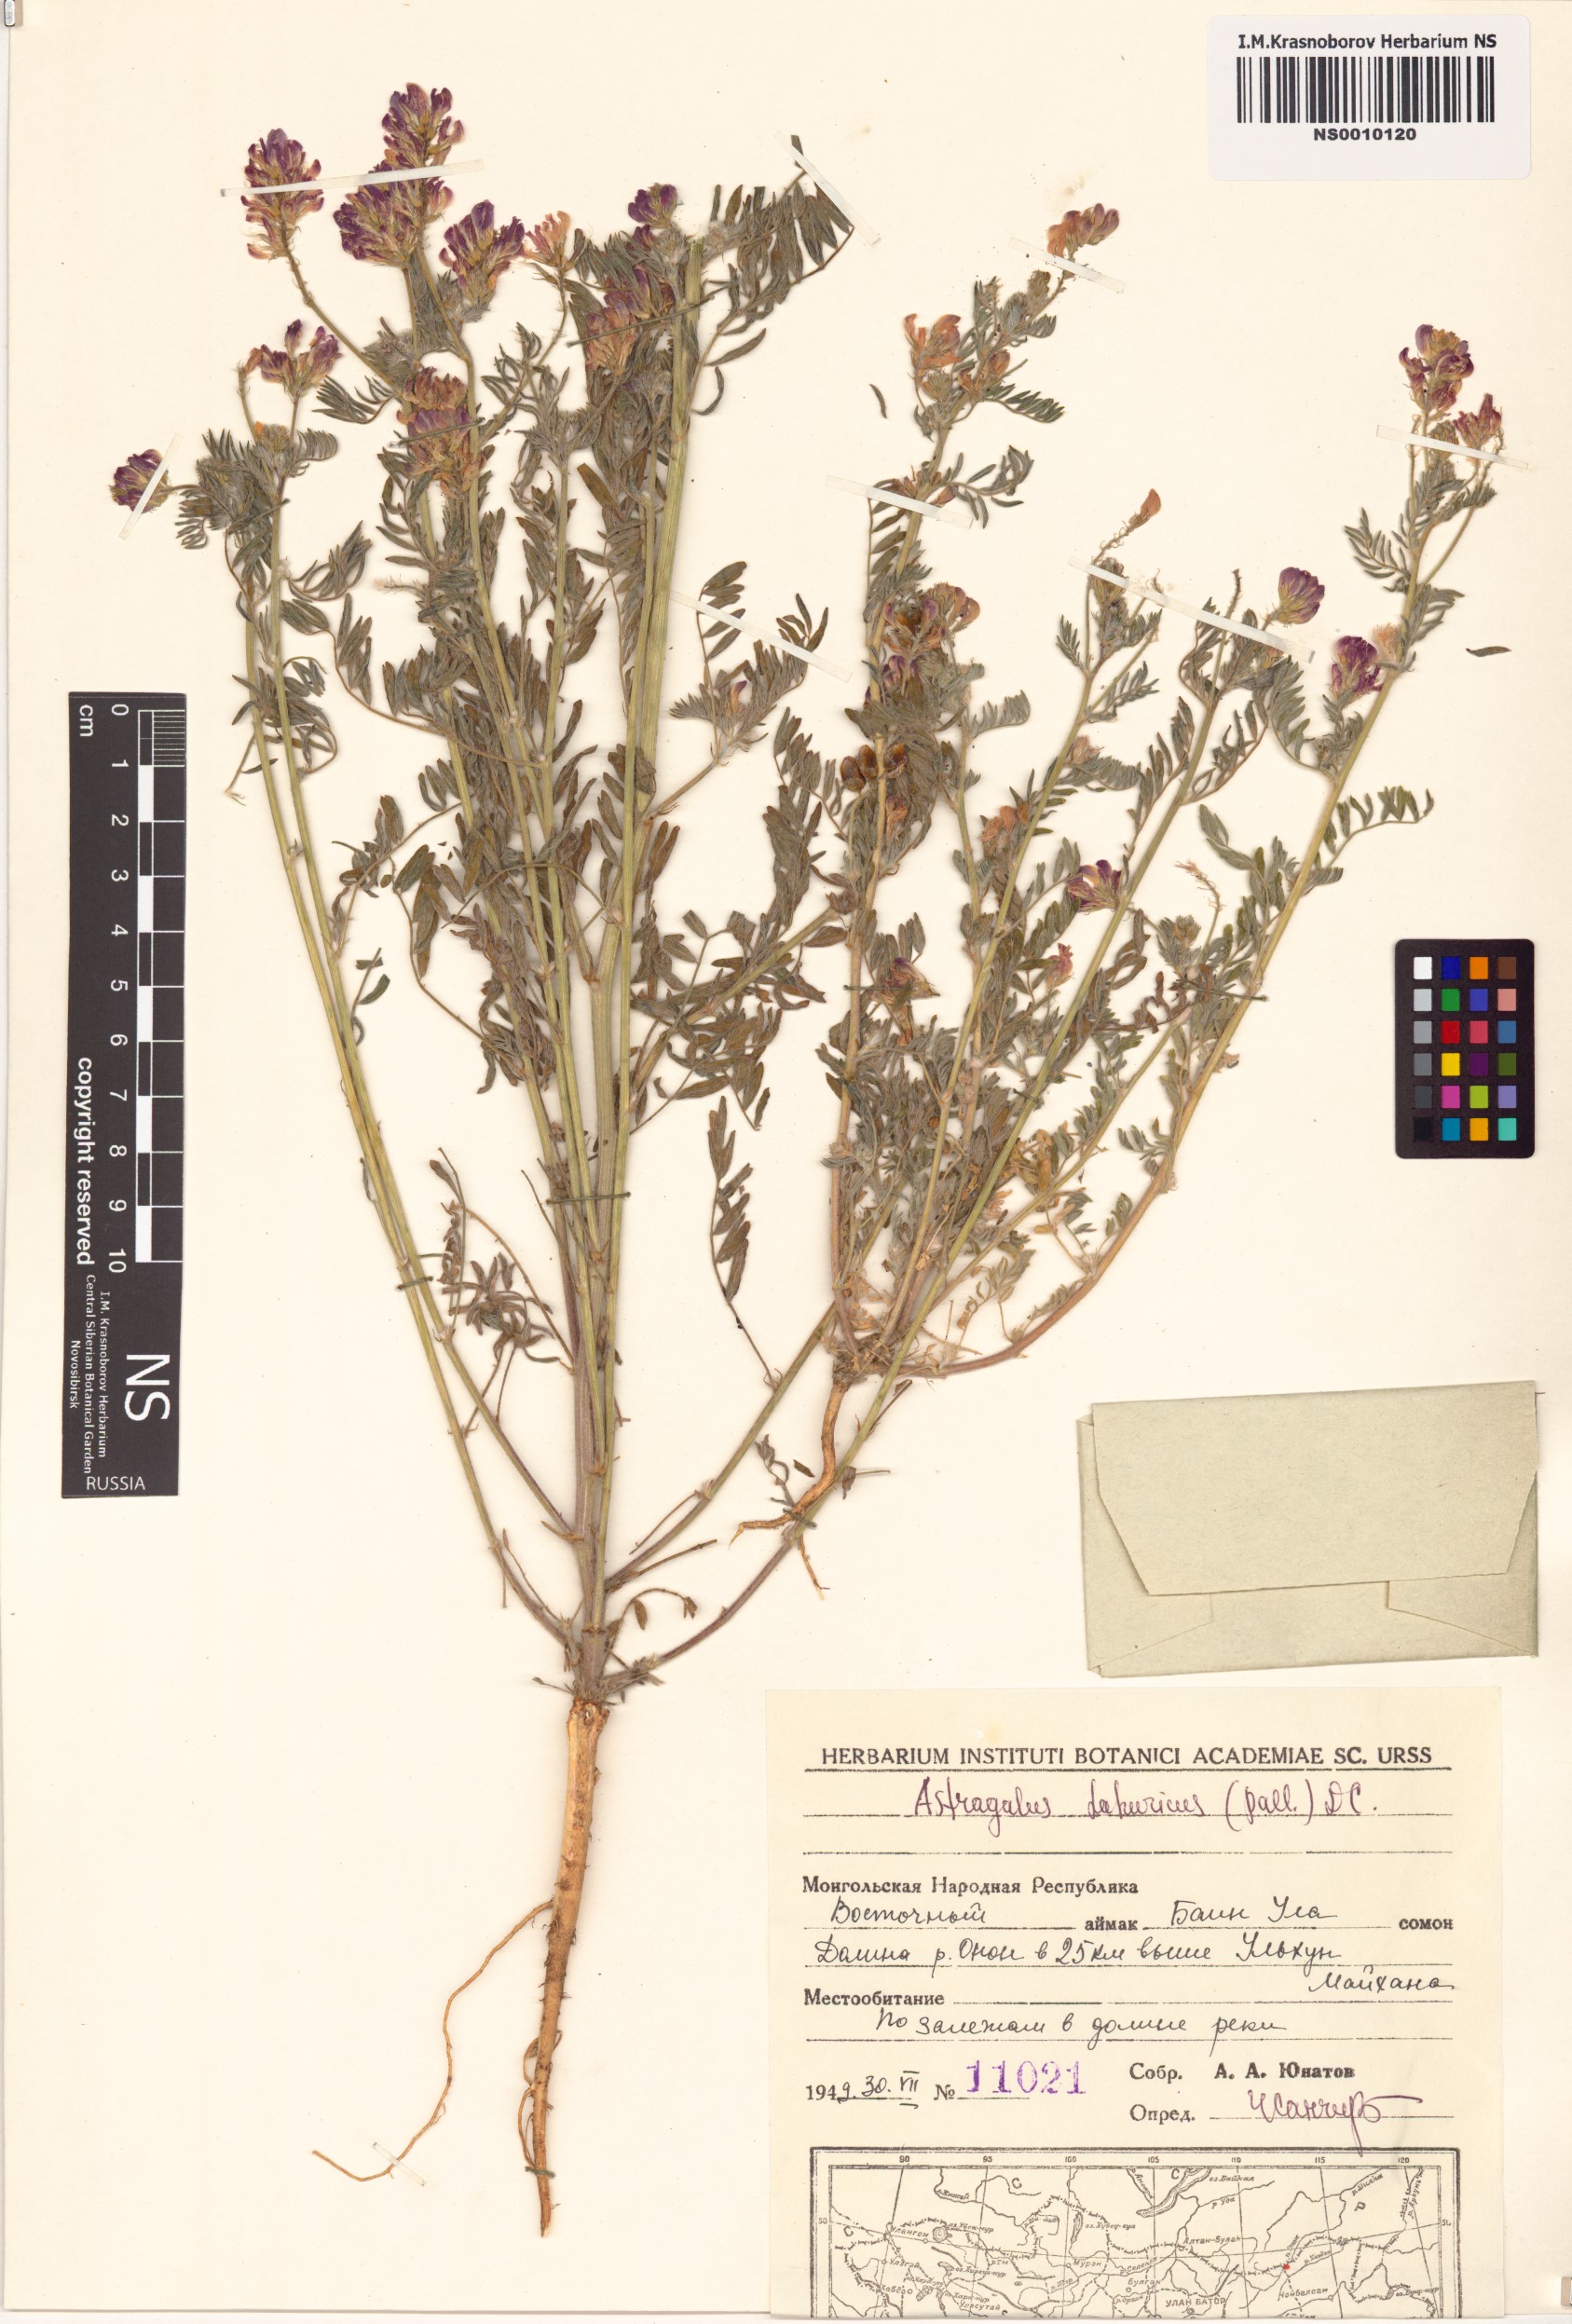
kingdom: Plantae
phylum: Tracheophyta
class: Magnoliopsida
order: Fabales
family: Fabaceae
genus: Oxytropis
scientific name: Oxytropis dissitiflora
